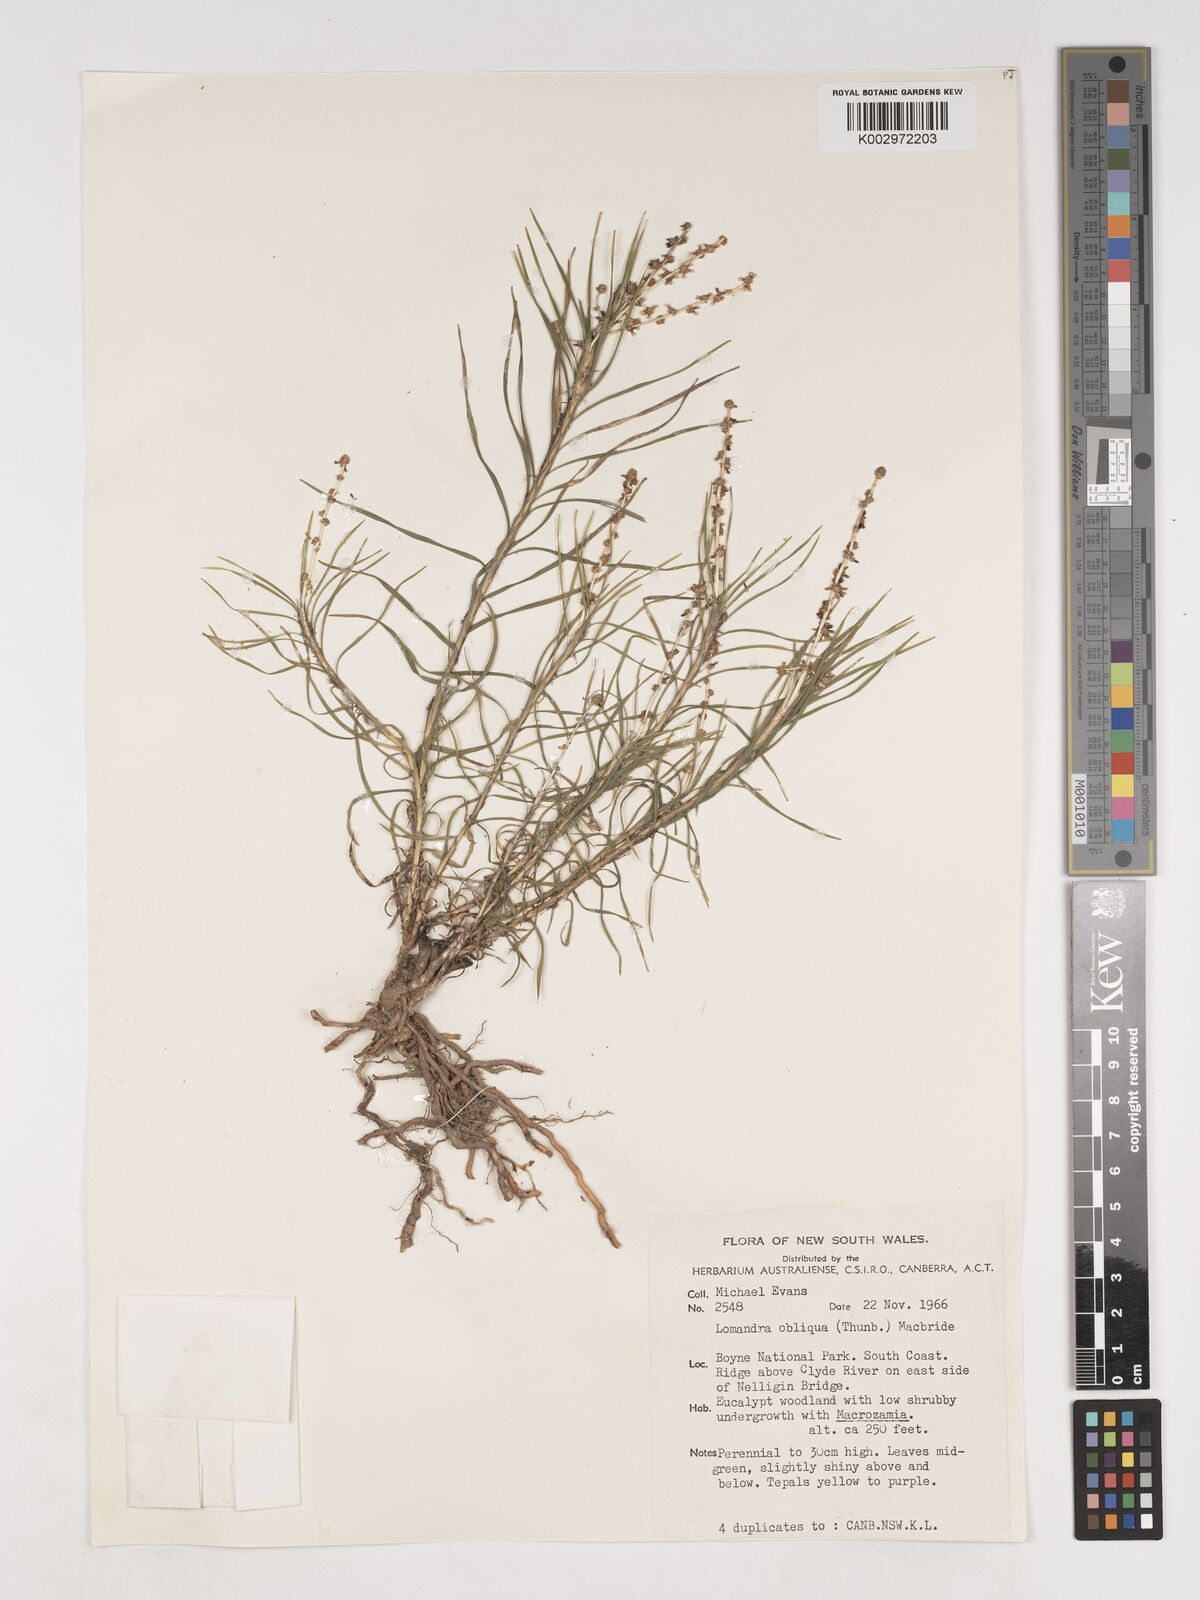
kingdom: Plantae
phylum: Tracheophyta
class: Liliopsida
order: Asparagales
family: Asparagaceae
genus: Lomandra
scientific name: Lomandra obliqua
